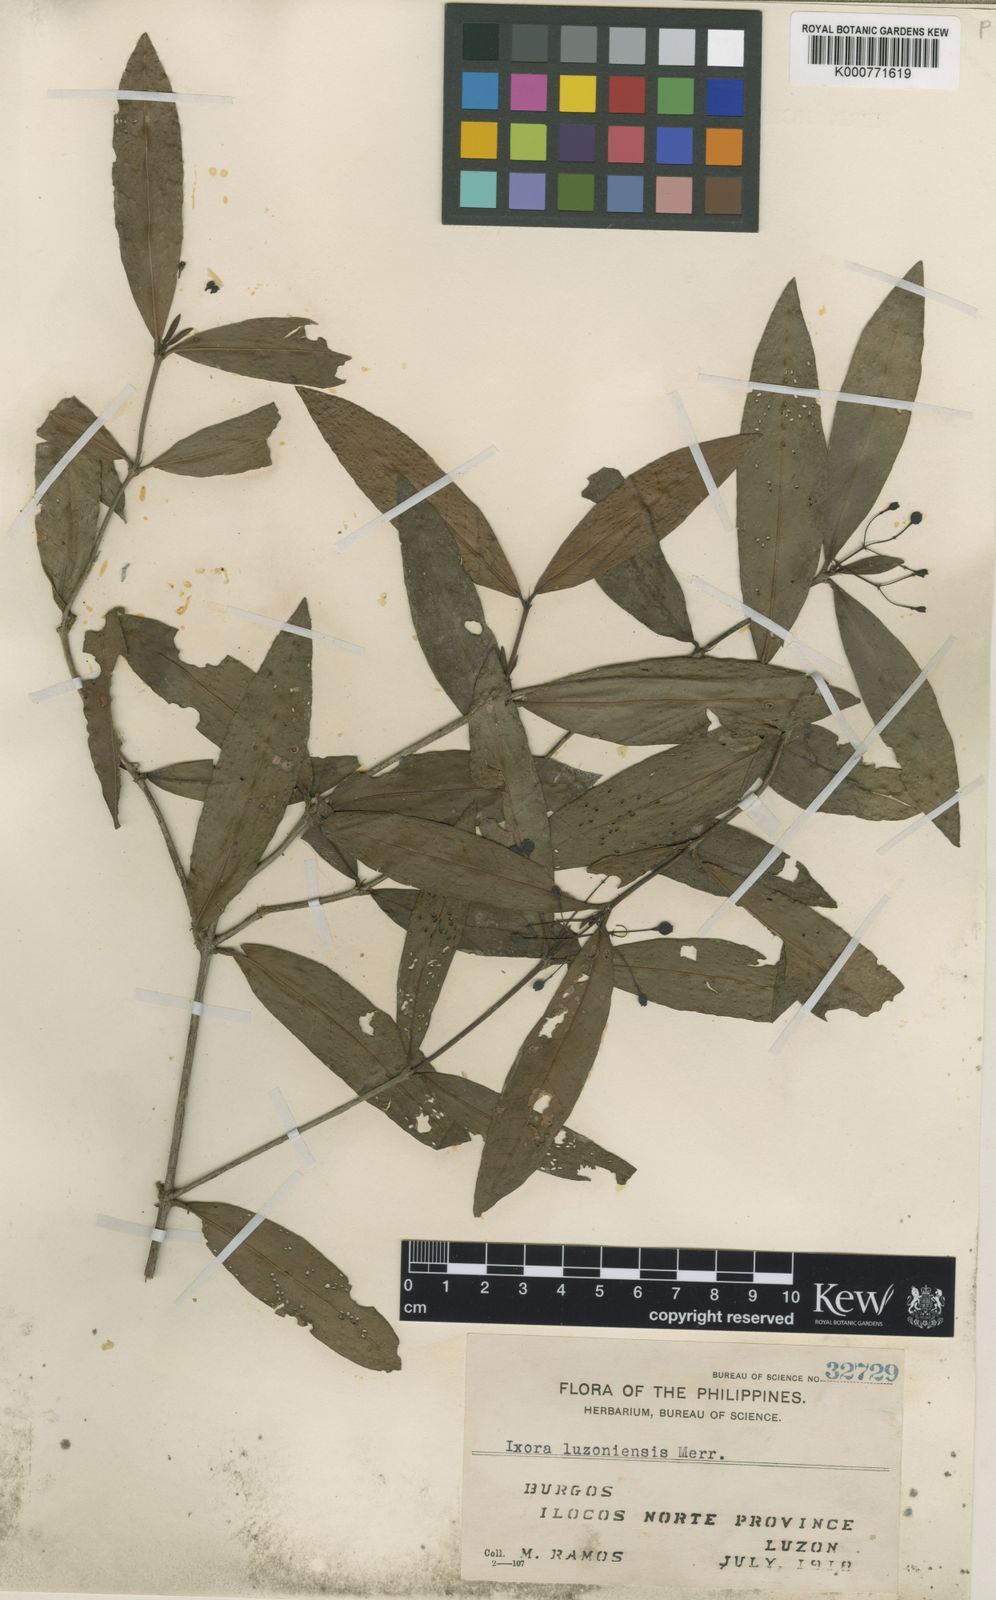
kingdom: Plantae
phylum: Tracheophyta
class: Magnoliopsida
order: Gentianales
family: Rubiaceae
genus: Ixora
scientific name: Ixora luzoniensis
